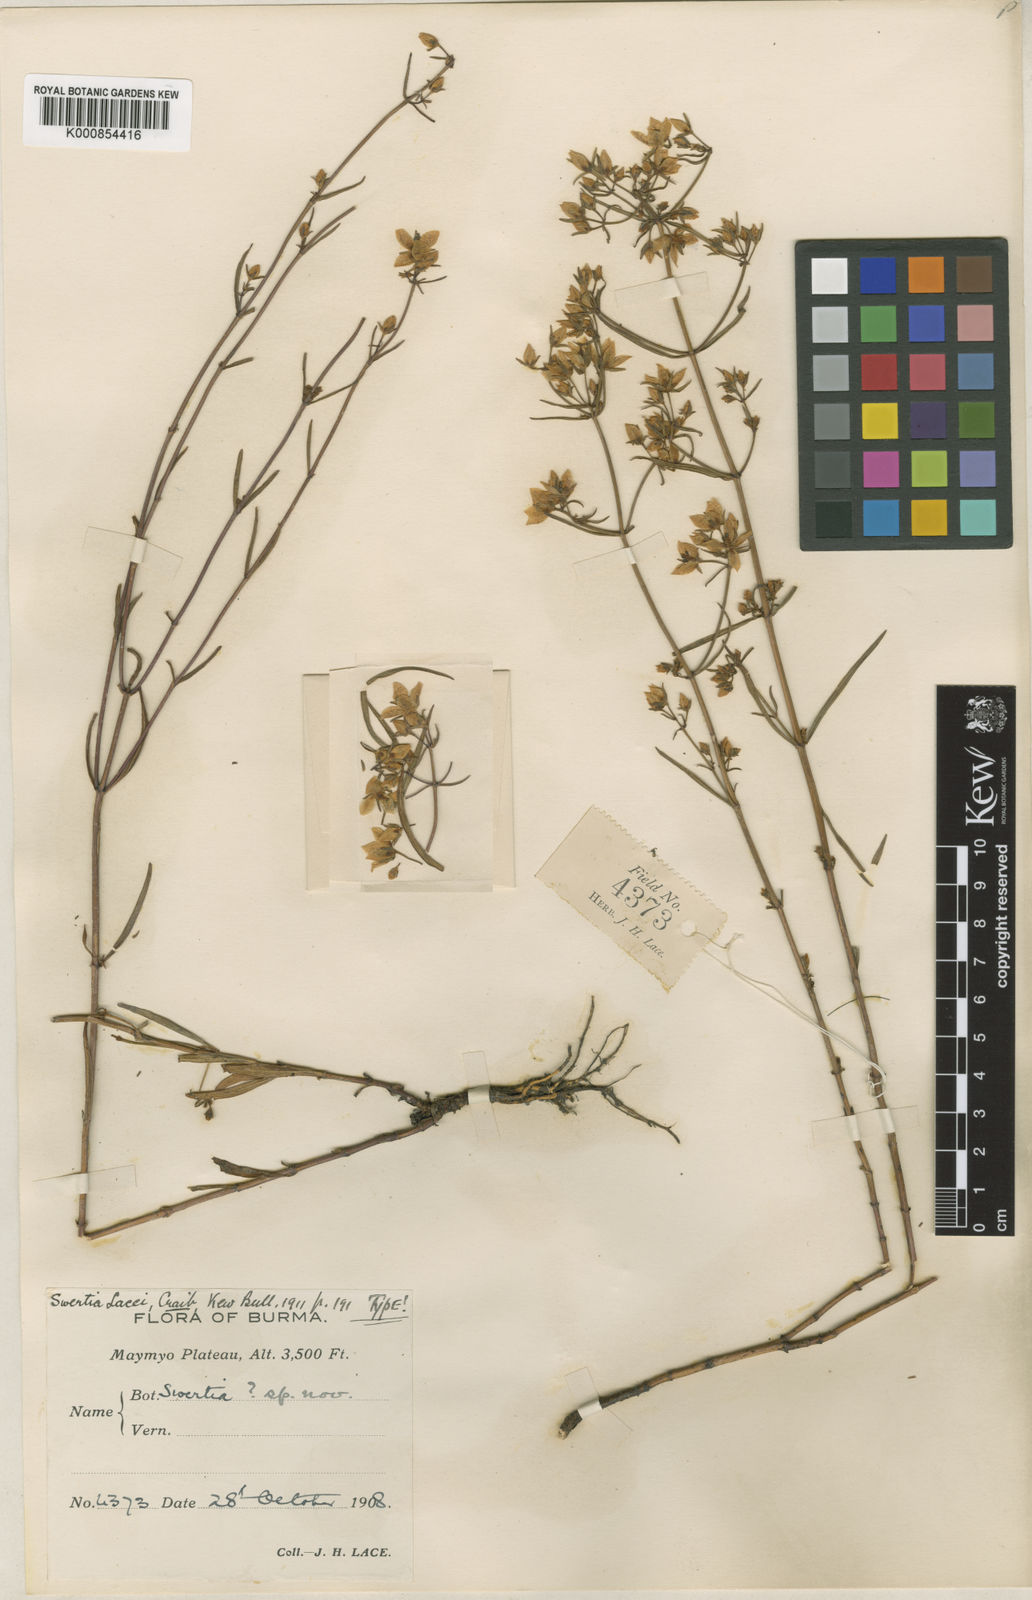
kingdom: Plantae
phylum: Tracheophyta
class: Magnoliopsida
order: Gentianales
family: Gentianaceae
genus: Swertia
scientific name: Swertia angustifolia
